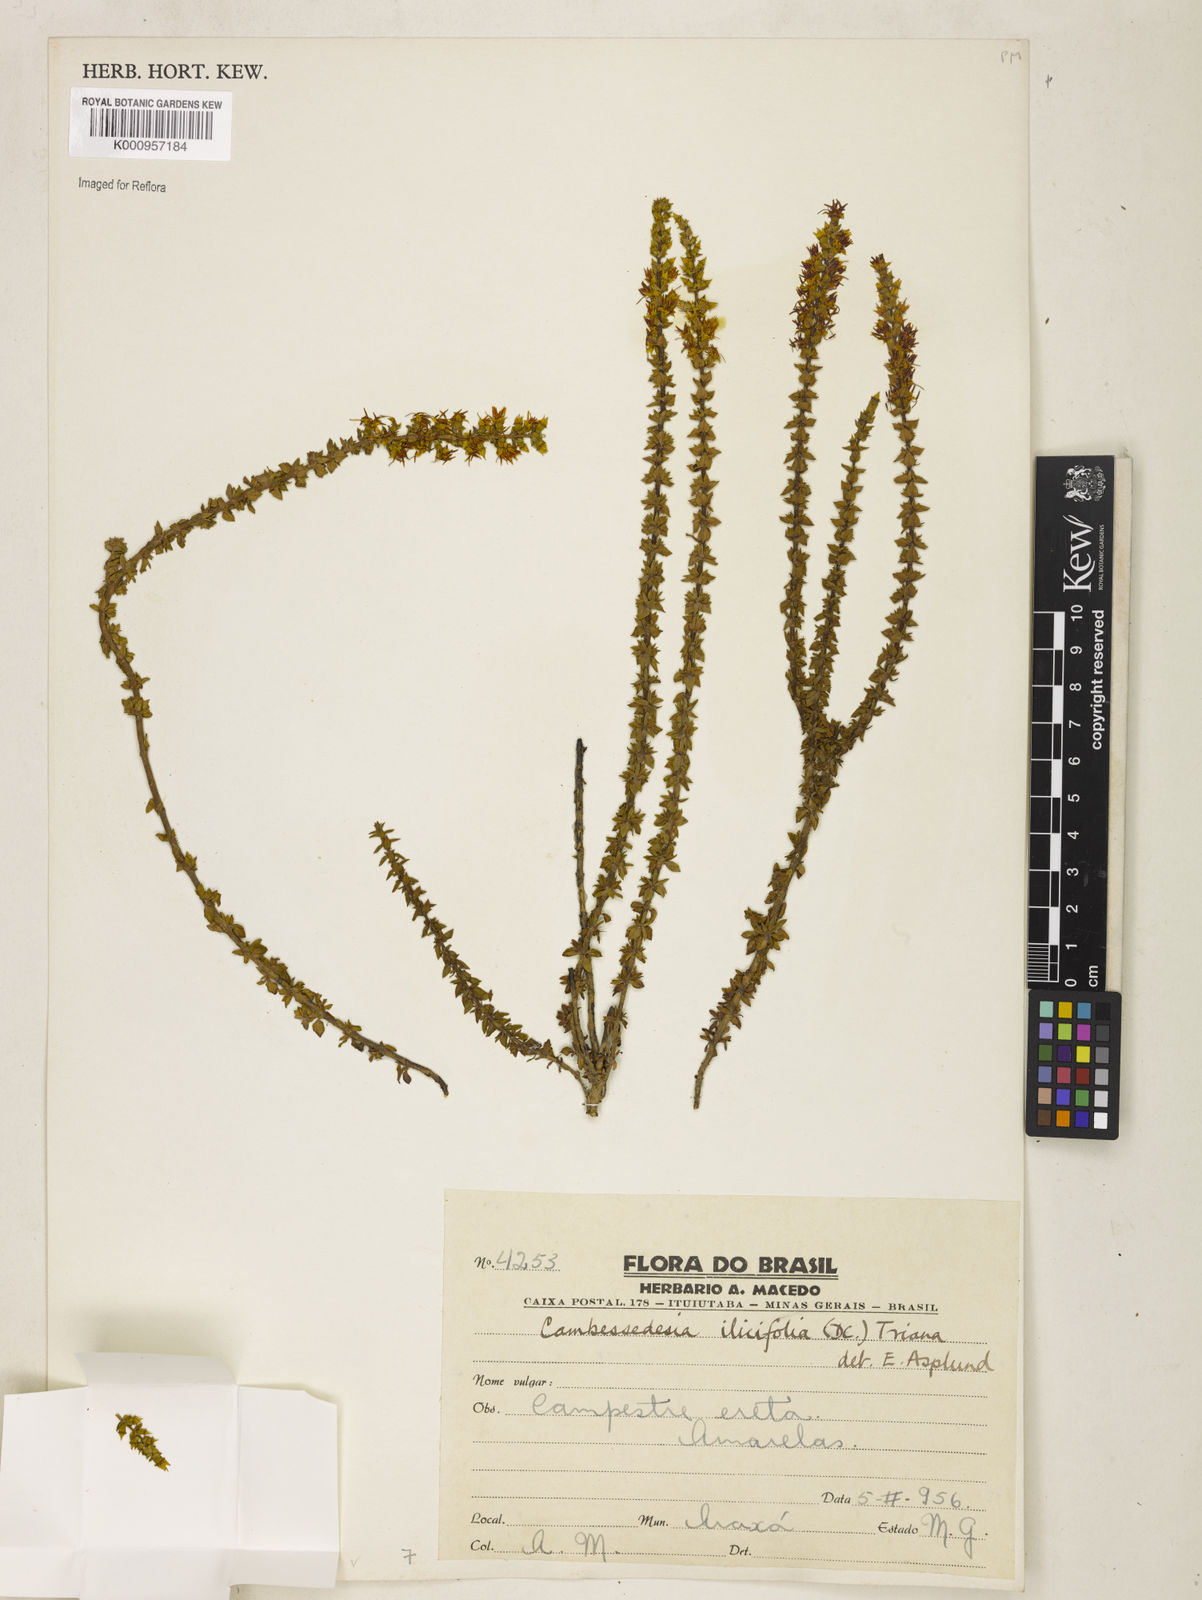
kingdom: Plantae
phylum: Tracheophyta
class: Magnoliopsida
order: Myrtales
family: Melastomataceae
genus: Cambessedesia
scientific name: Cambessedesia espora
